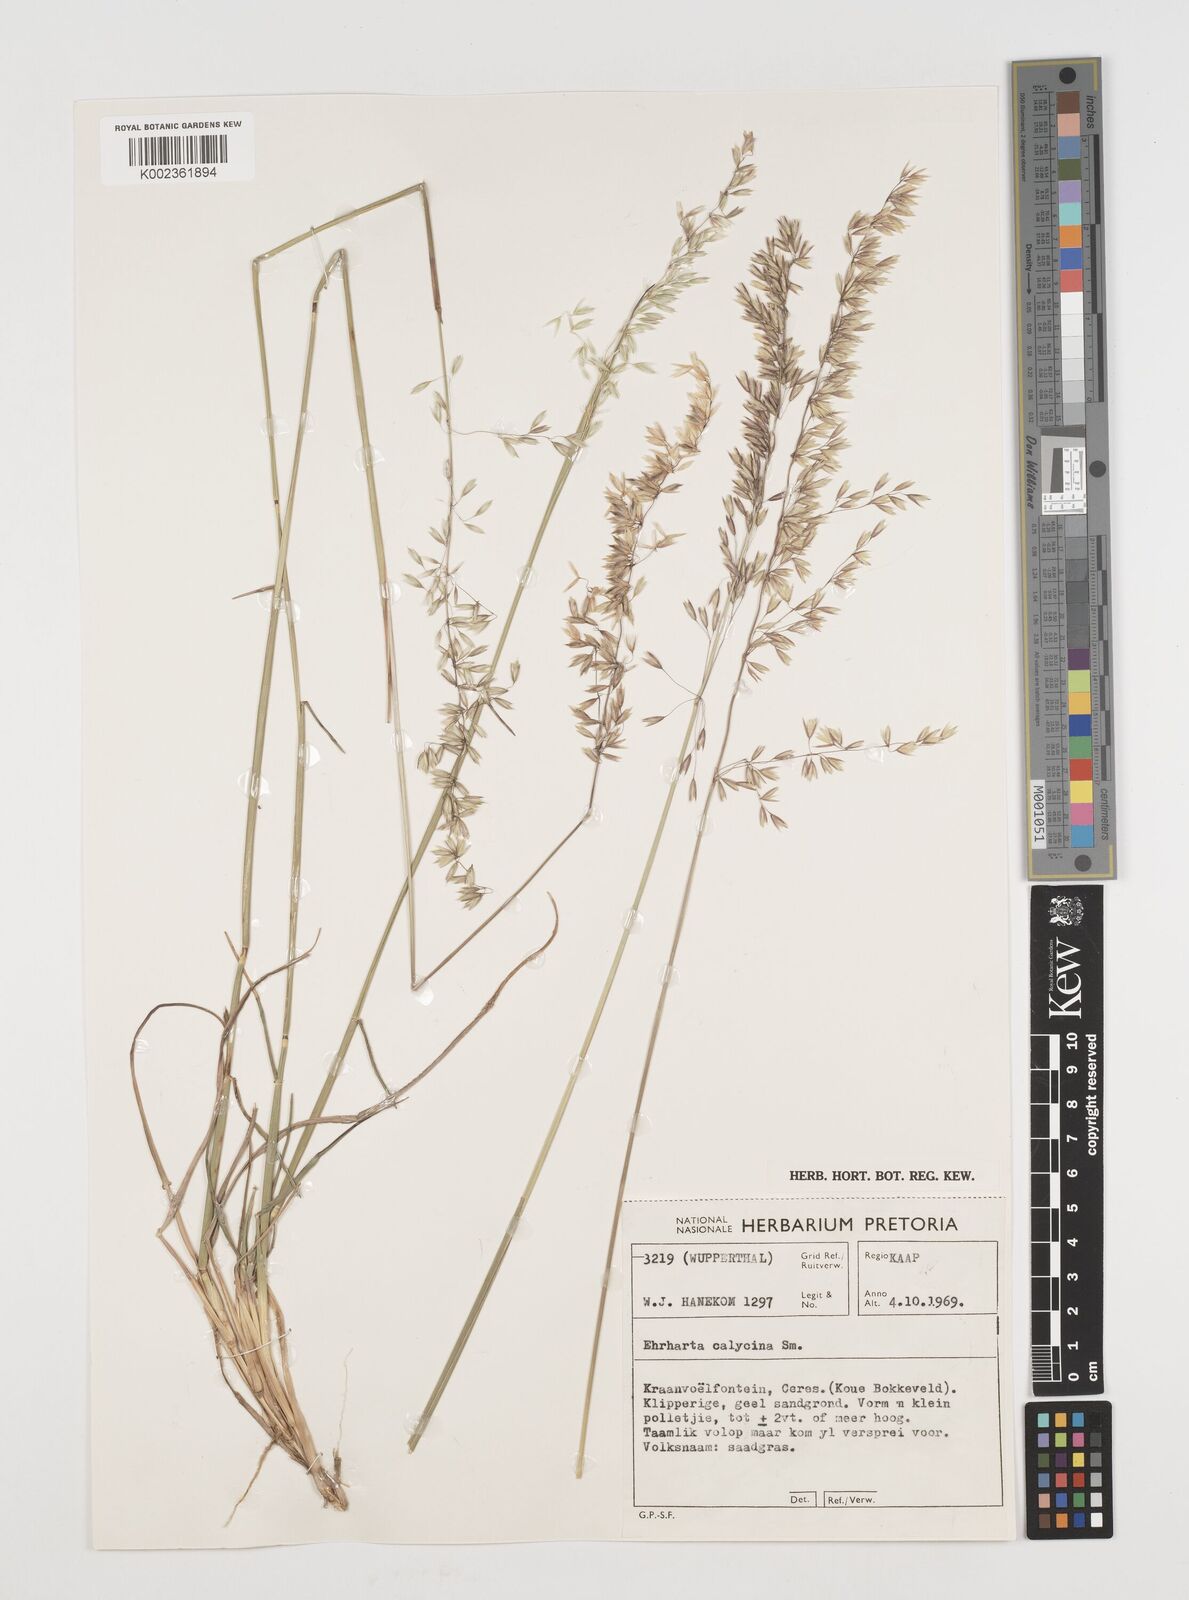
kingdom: Plantae
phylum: Tracheophyta
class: Liliopsida
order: Poales
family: Poaceae
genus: Ehrharta
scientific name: Ehrharta calycina
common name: Perennial veldtgrass
